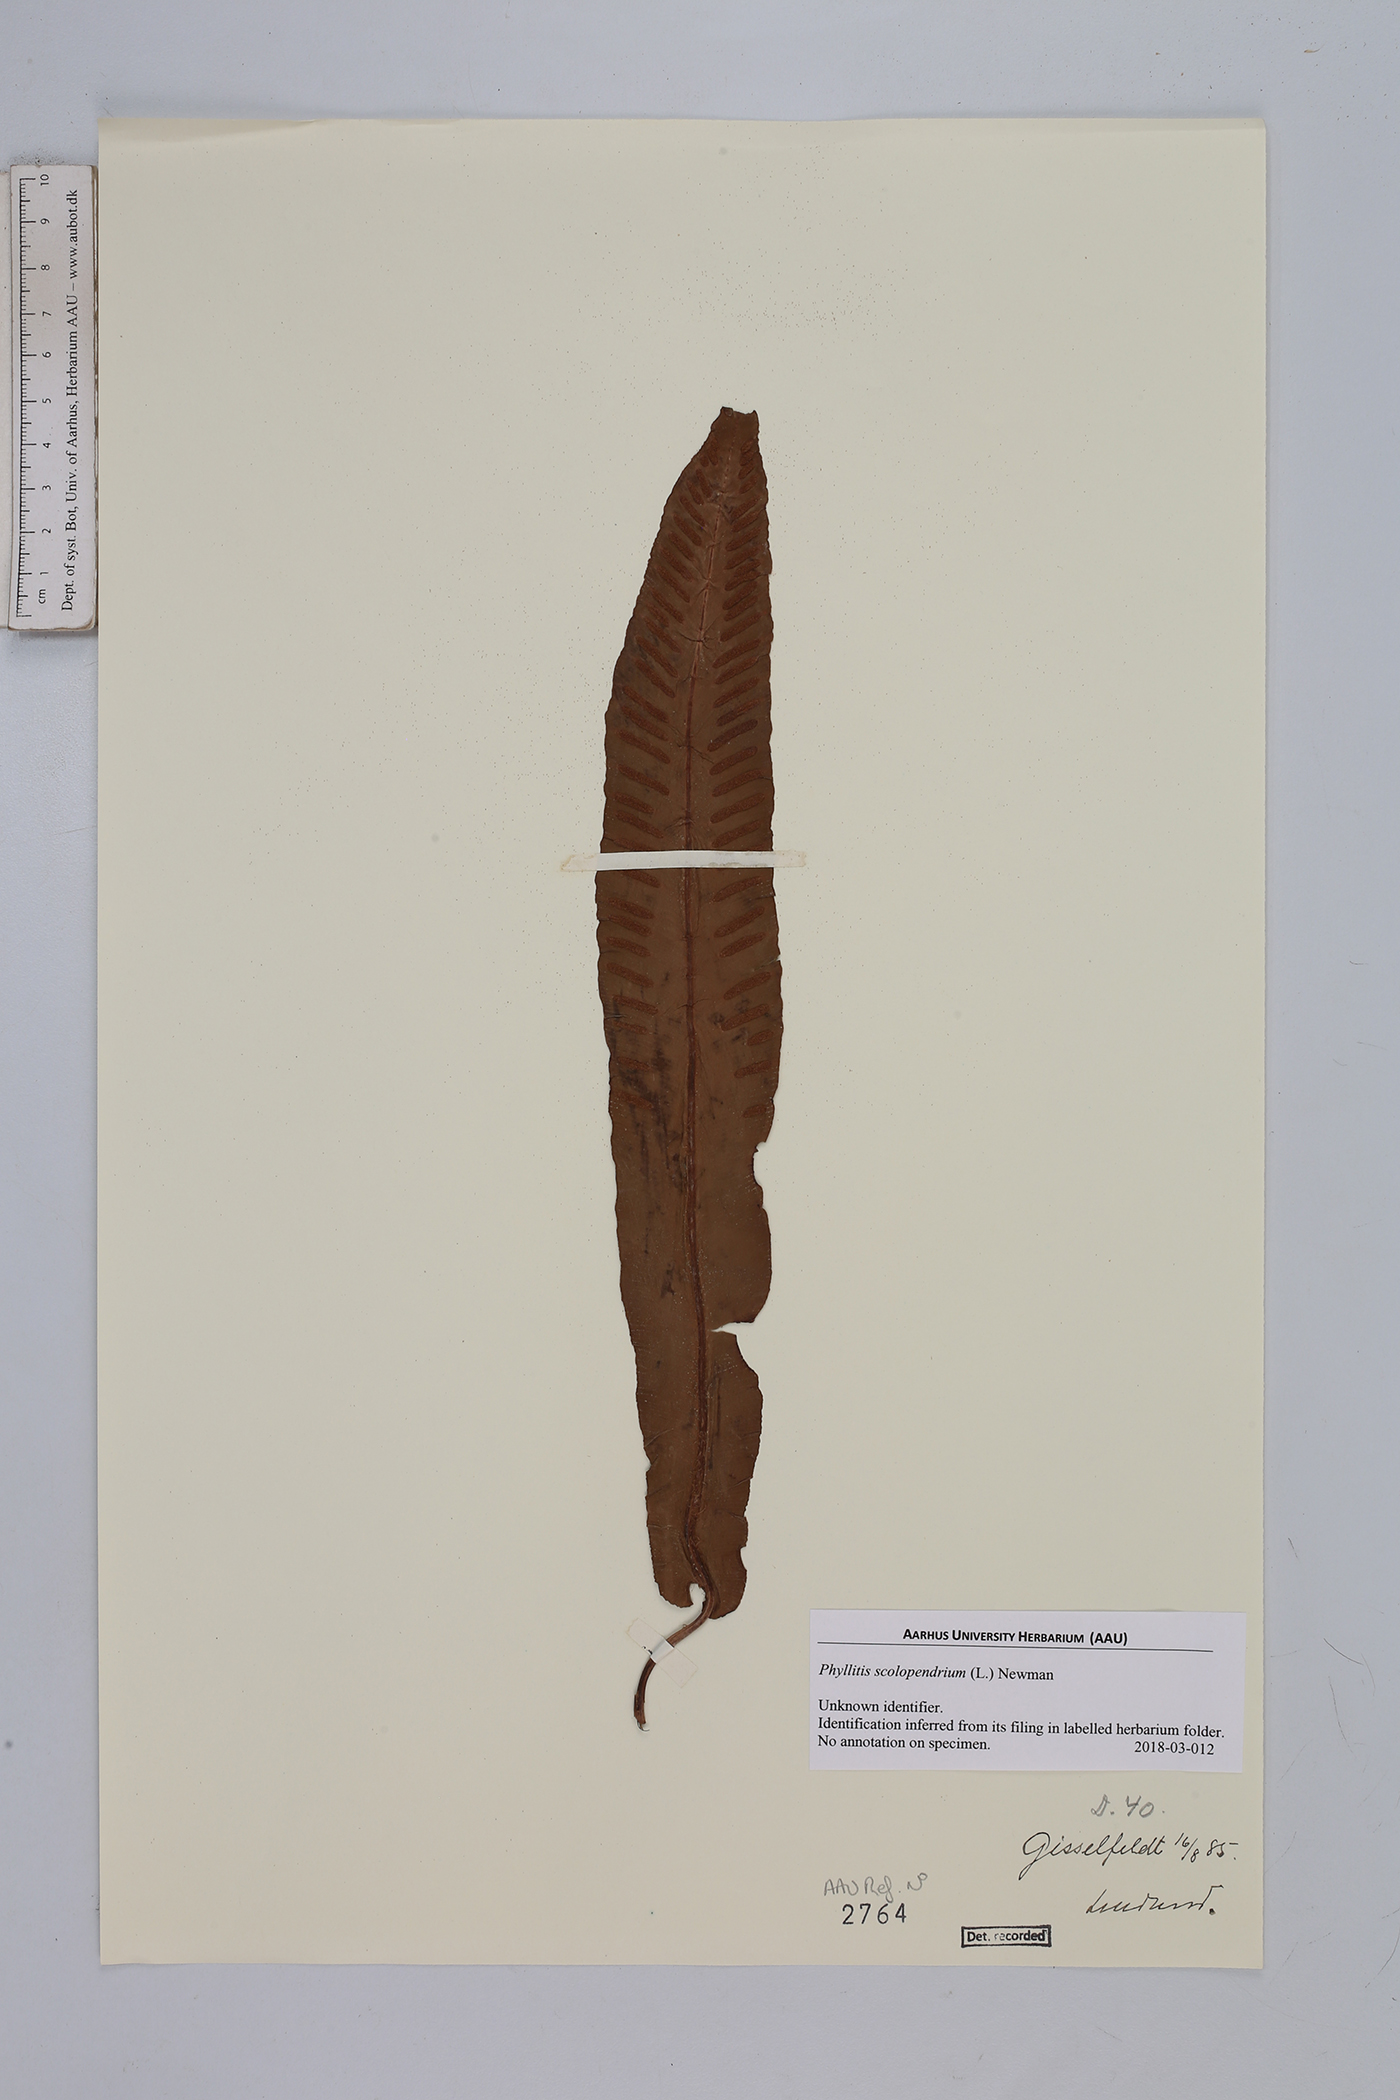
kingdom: Plantae
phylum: Tracheophyta
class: Polypodiopsida
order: Polypodiales
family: Aspleniaceae
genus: Asplenium
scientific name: Asplenium scolopendrium
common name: Hart's-tongue fern
